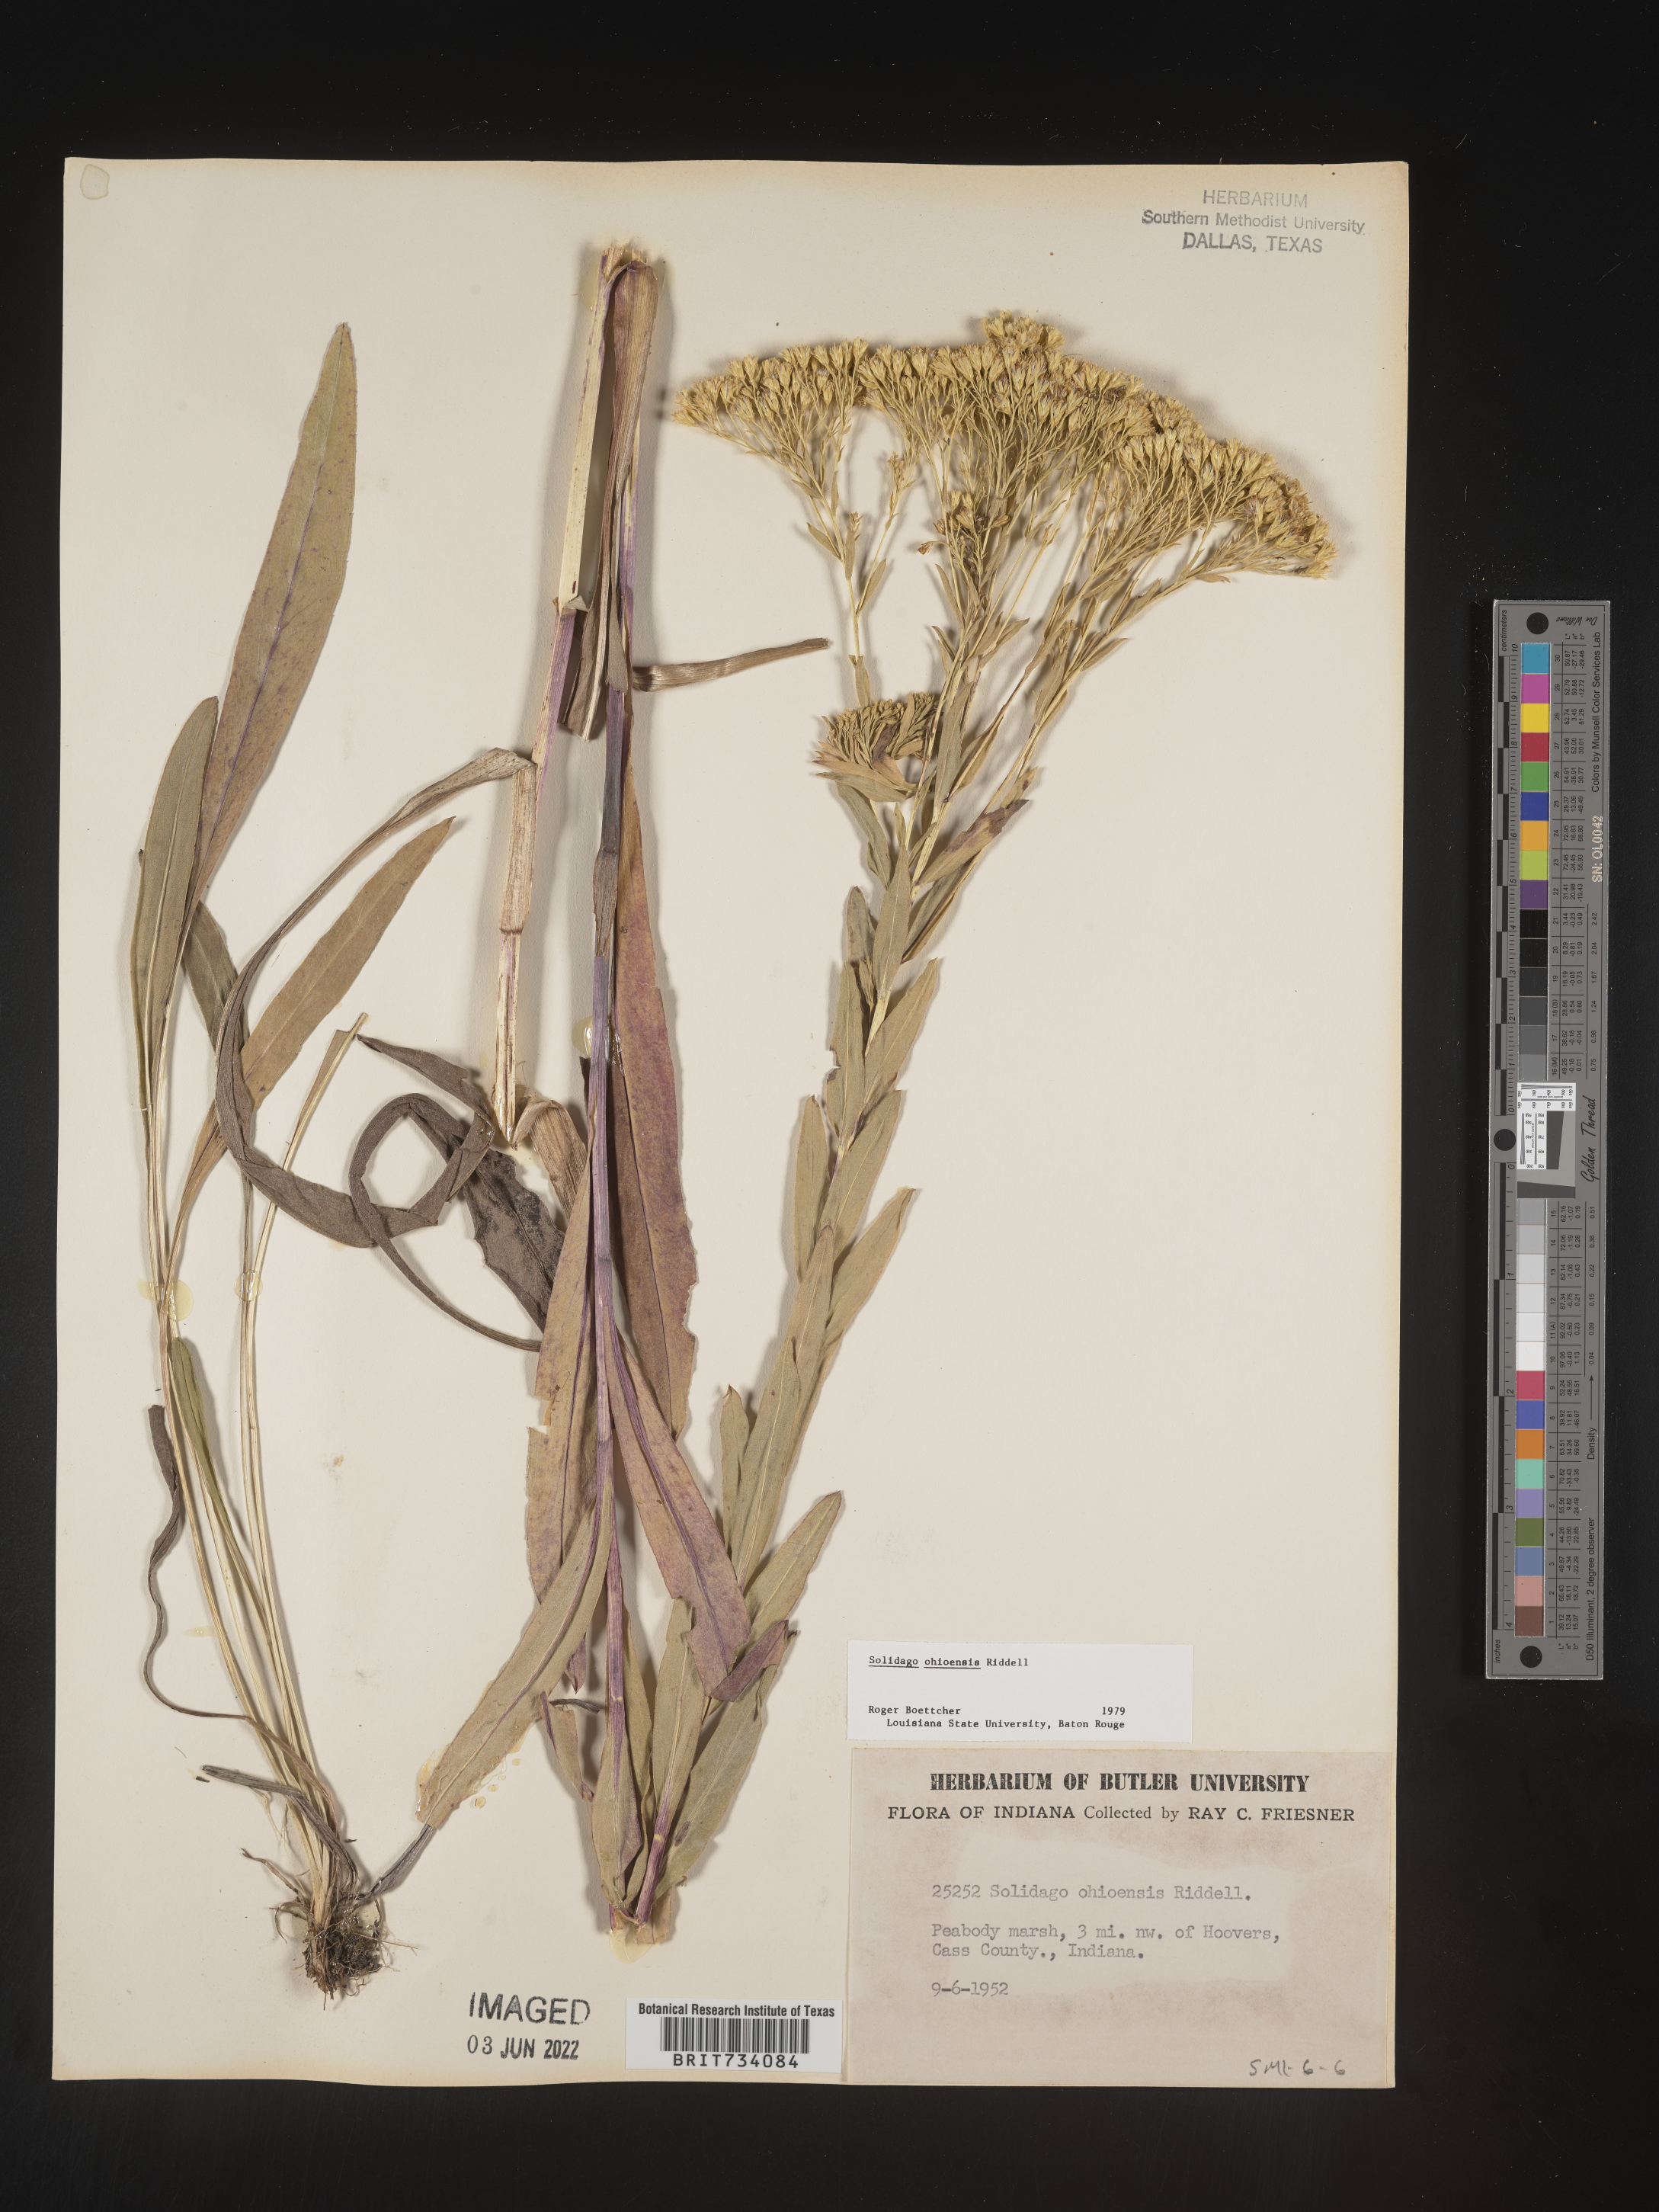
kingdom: Plantae
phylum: Tracheophyta
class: Magnoliopsida
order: Asterales
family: Asteraceae
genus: Solidago
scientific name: Solidago nitida
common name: Shiny goldenrod
